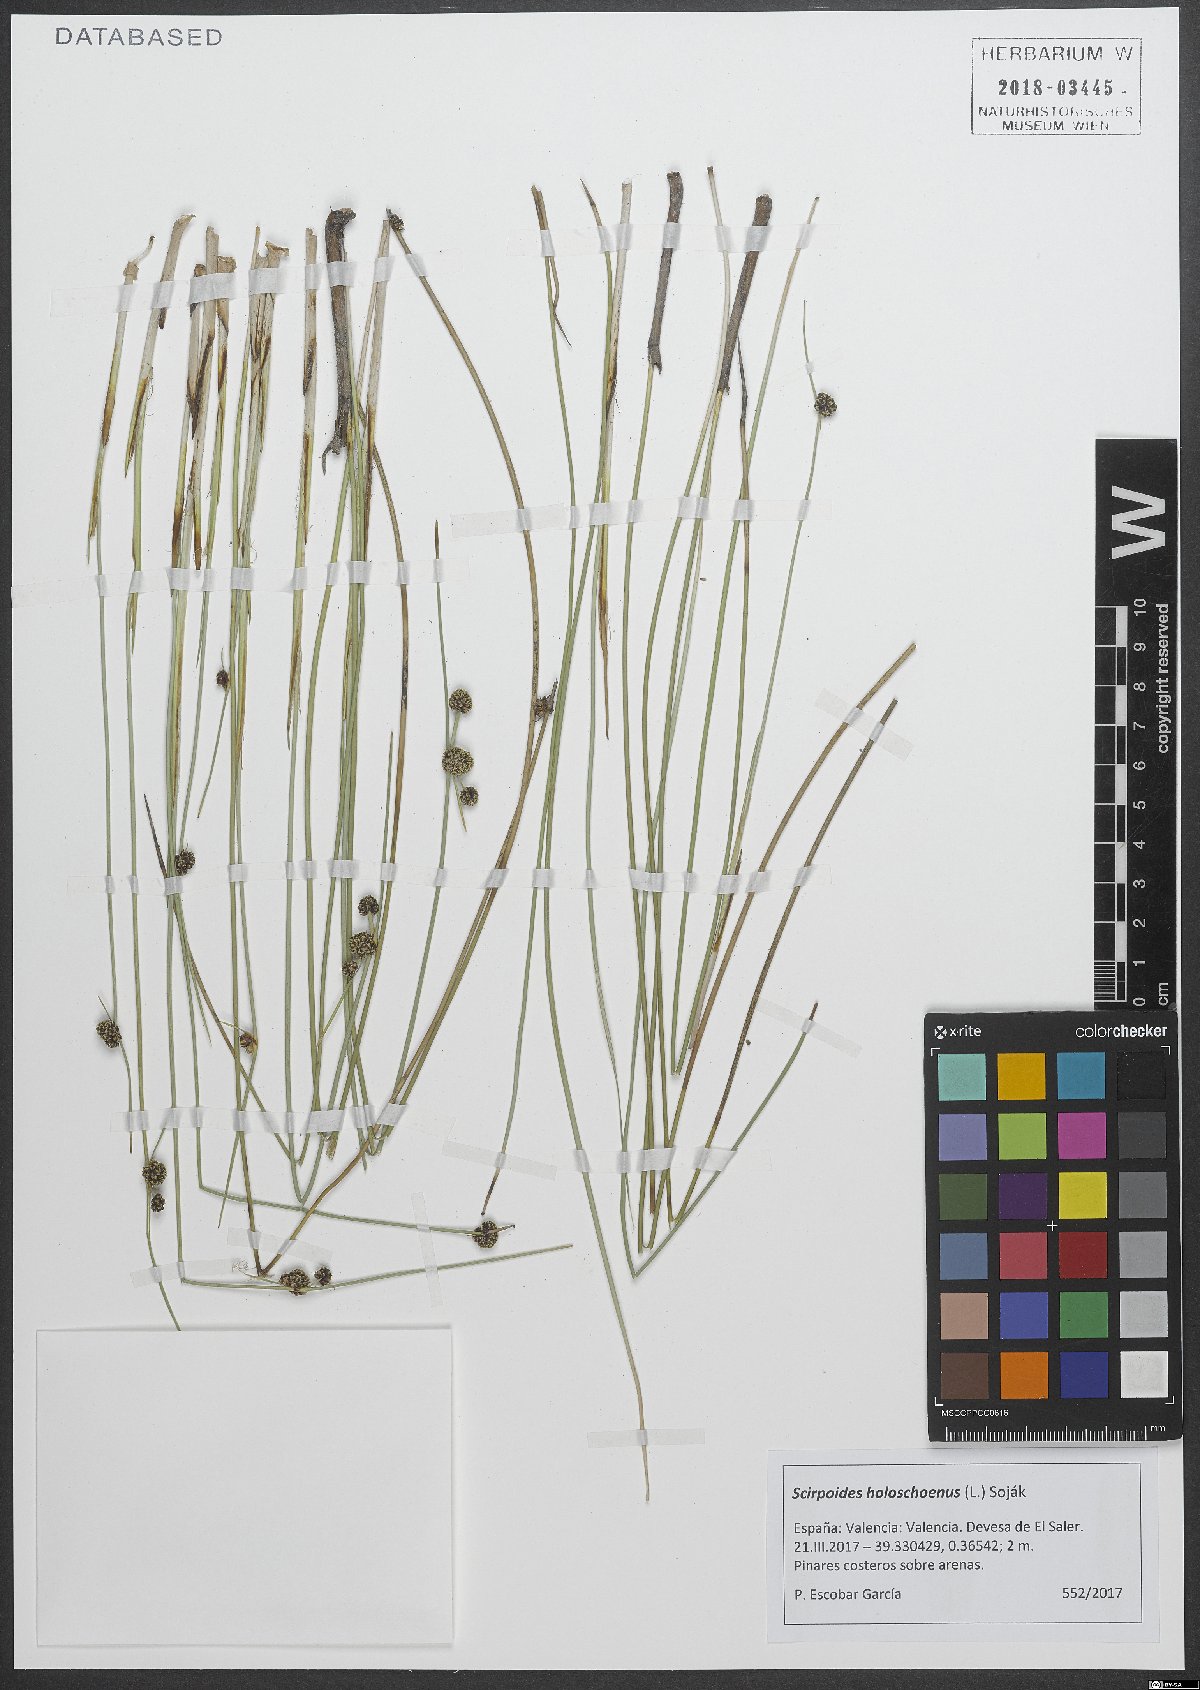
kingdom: Plantae
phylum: Tracheophyta
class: Liliopsida
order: Poales
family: Cyperaceae
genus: Scirpoides
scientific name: Scirpoides holoschoenus
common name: Round-headed club-rush
